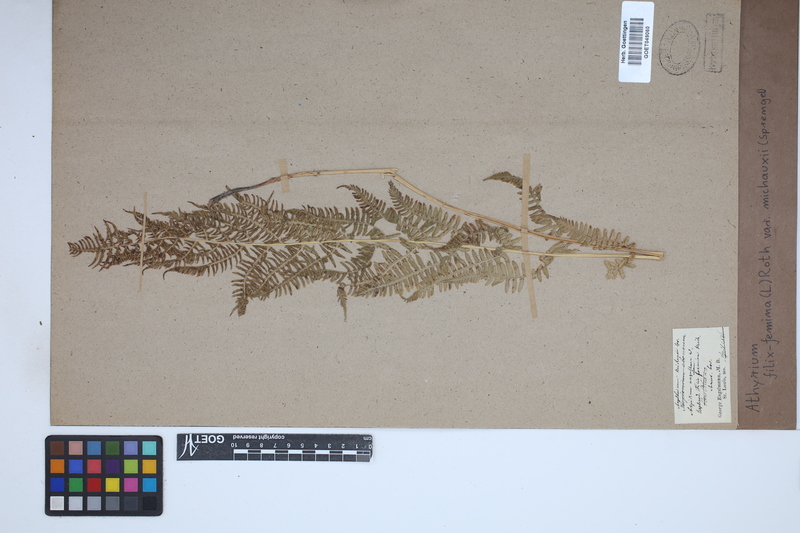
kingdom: Plantae
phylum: Tracheophyta
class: Polypodiopsida
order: Polypodiales
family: Athyriaceae
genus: Athyrium
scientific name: Athyrium angustum
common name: Northern lady fern
